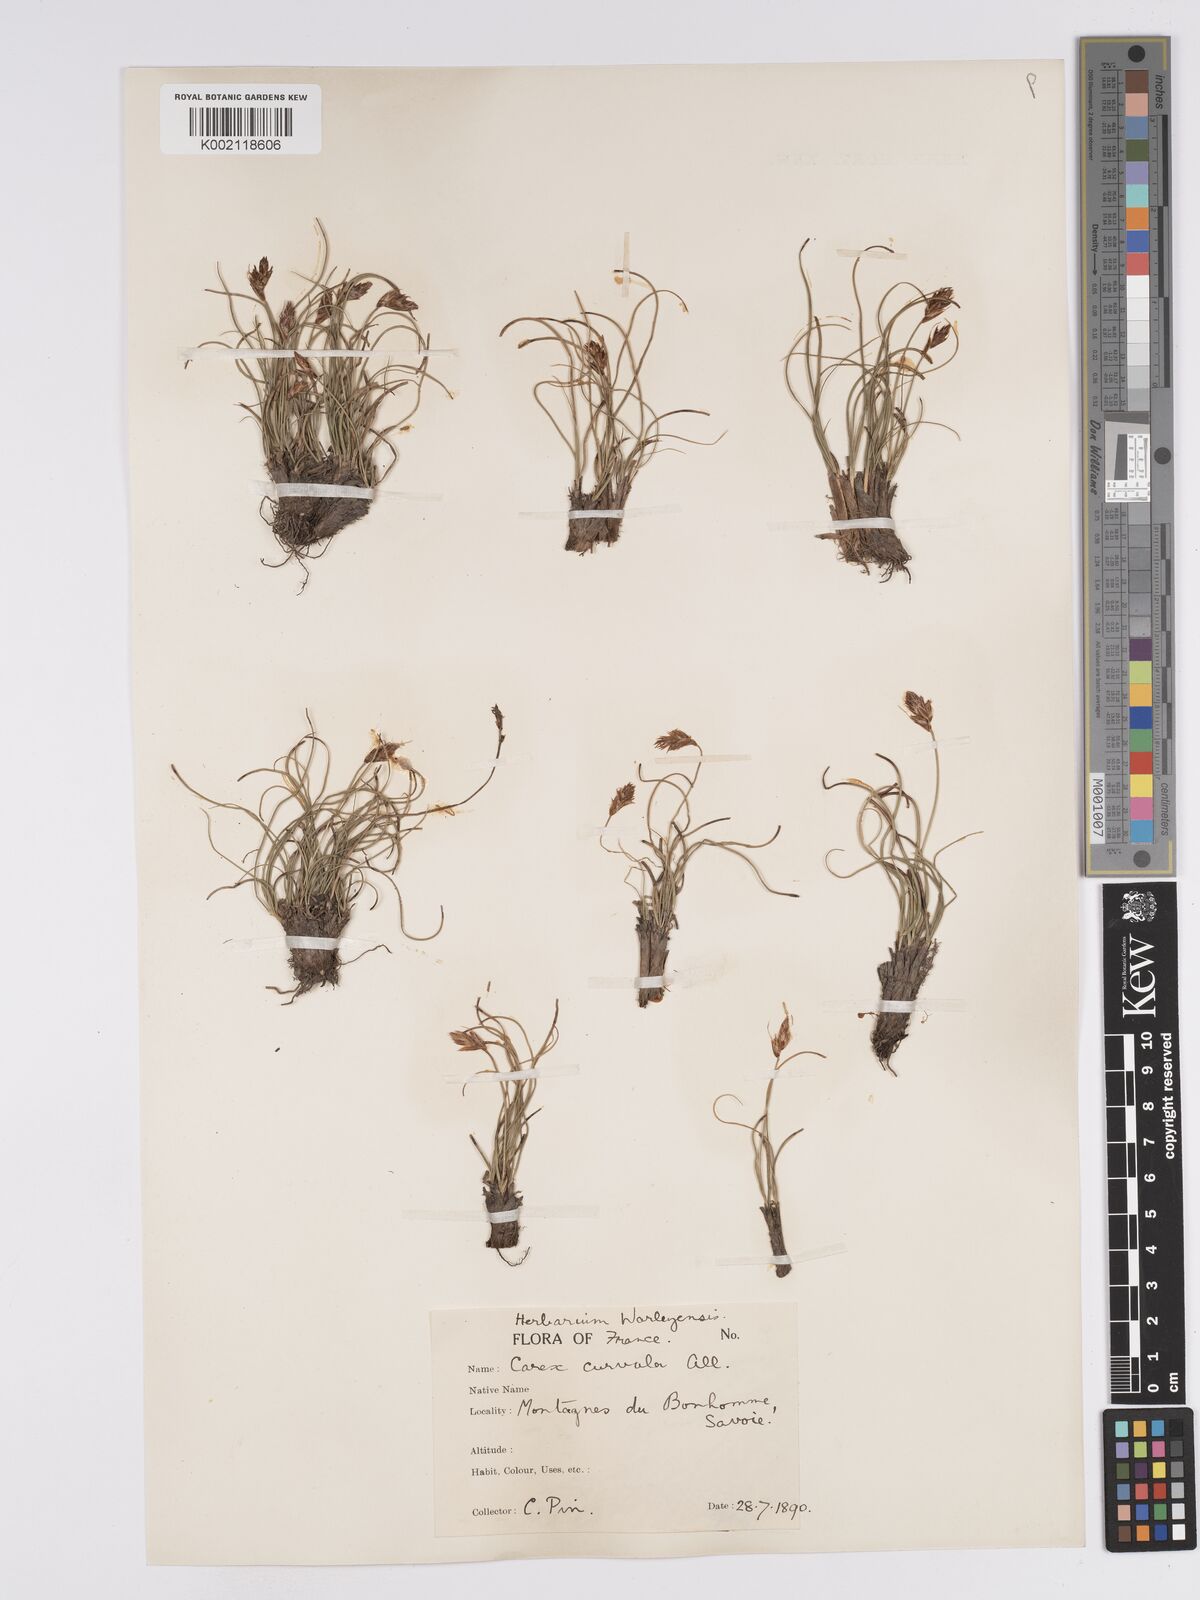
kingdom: Plantae
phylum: Tracheophyta
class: Liliopsida
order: Poales
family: Cyperaceae
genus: Carex
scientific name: Carex curvula
